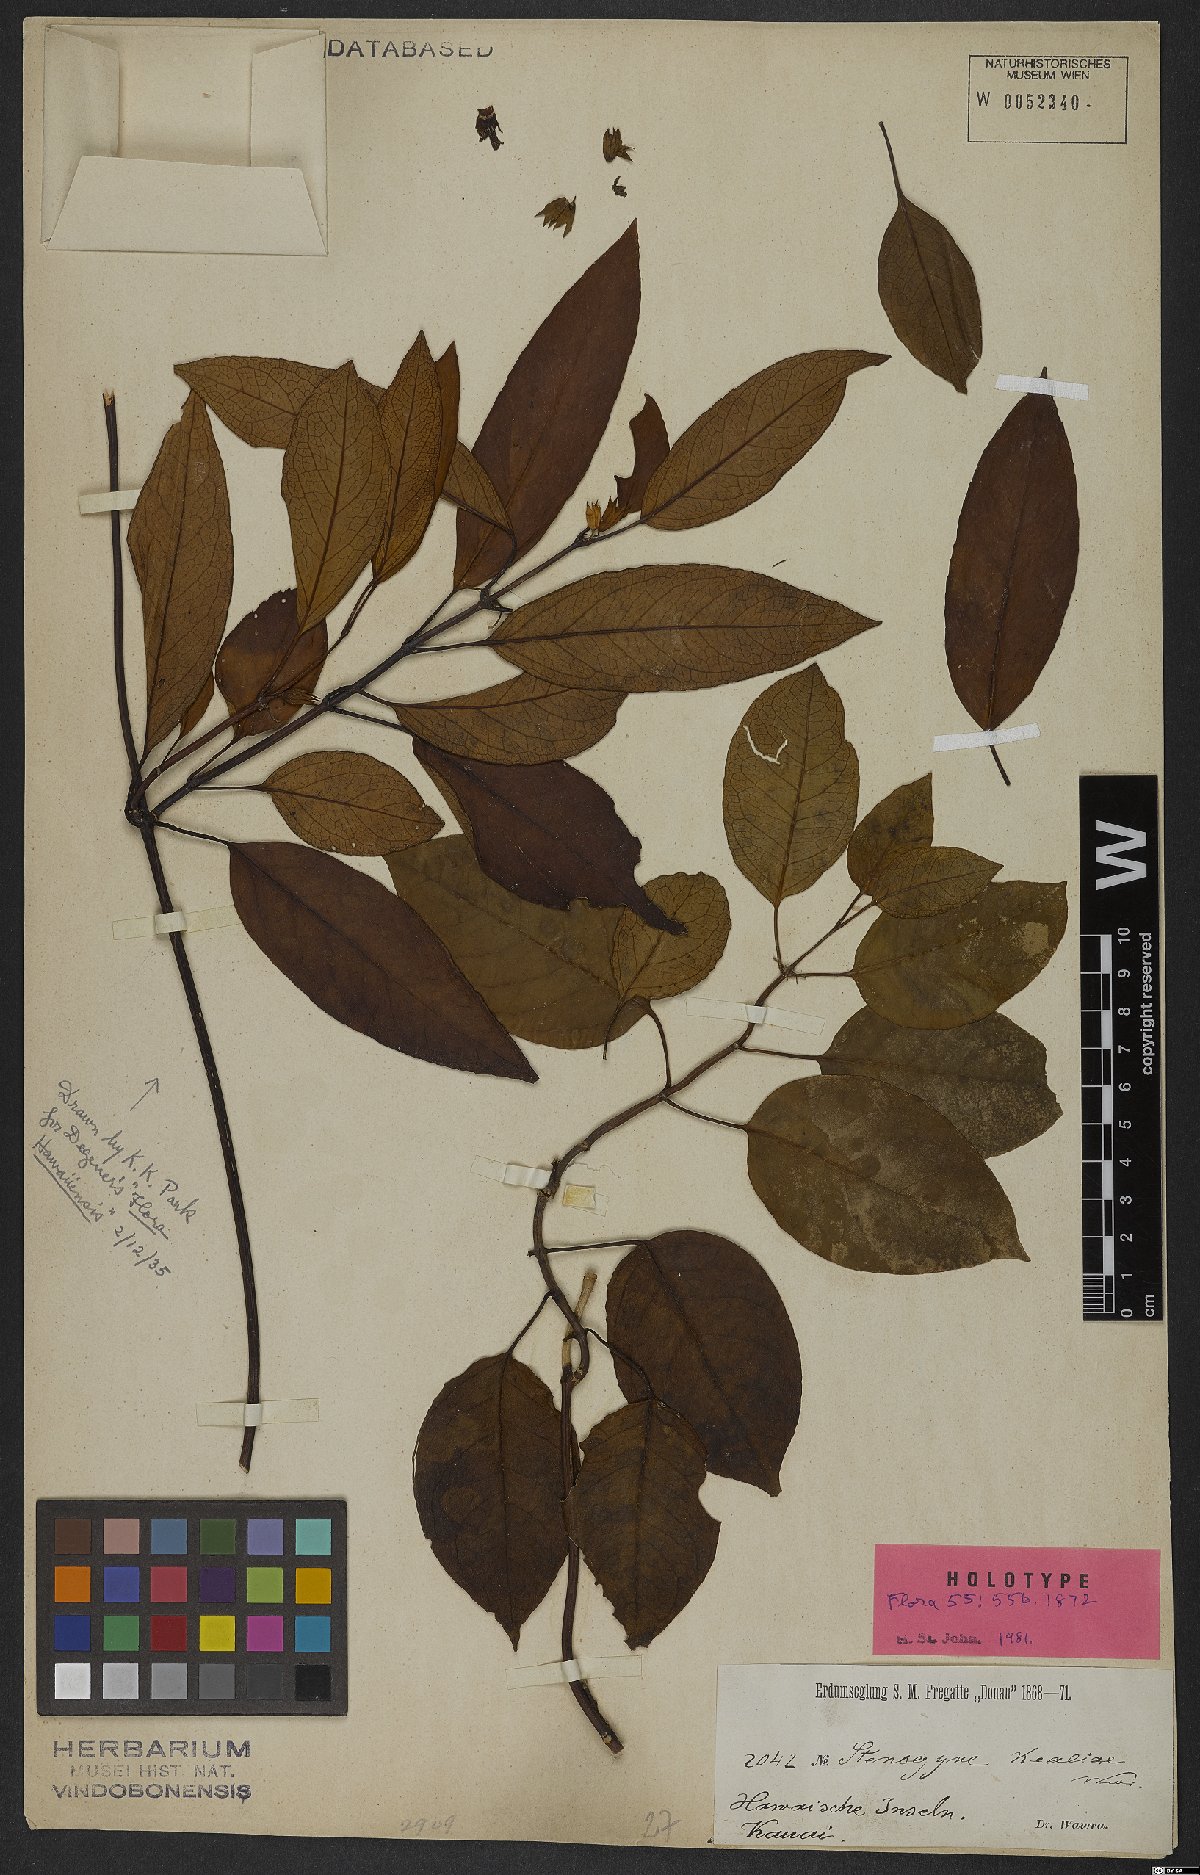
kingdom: Plantae
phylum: Tracheophyta
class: Magnoliopsida
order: Lamiales
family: Lamiaceae
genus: Stenogyne
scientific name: Stenogyne purpurea
